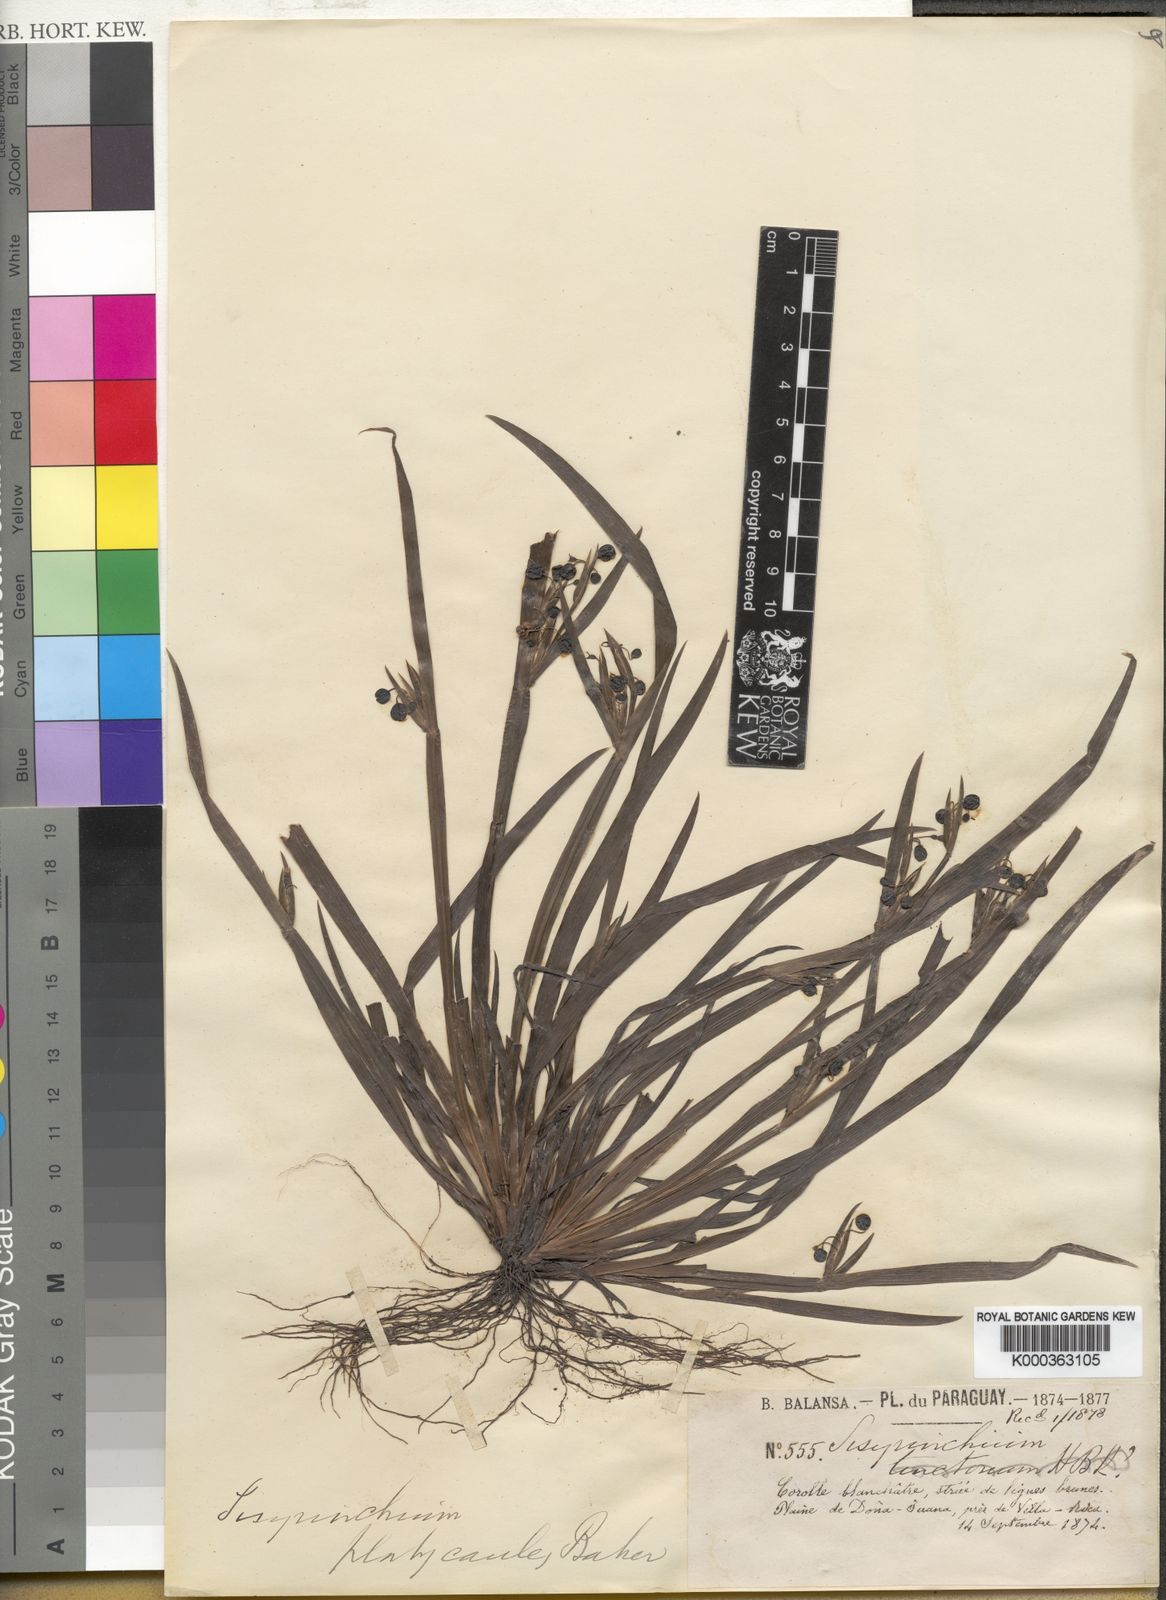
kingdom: Plantae
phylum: Tracheophyta
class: Liliopsida
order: Asparagales
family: Iridaceae
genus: Sisyrinchium
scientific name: Sisyrinchium platycaule
